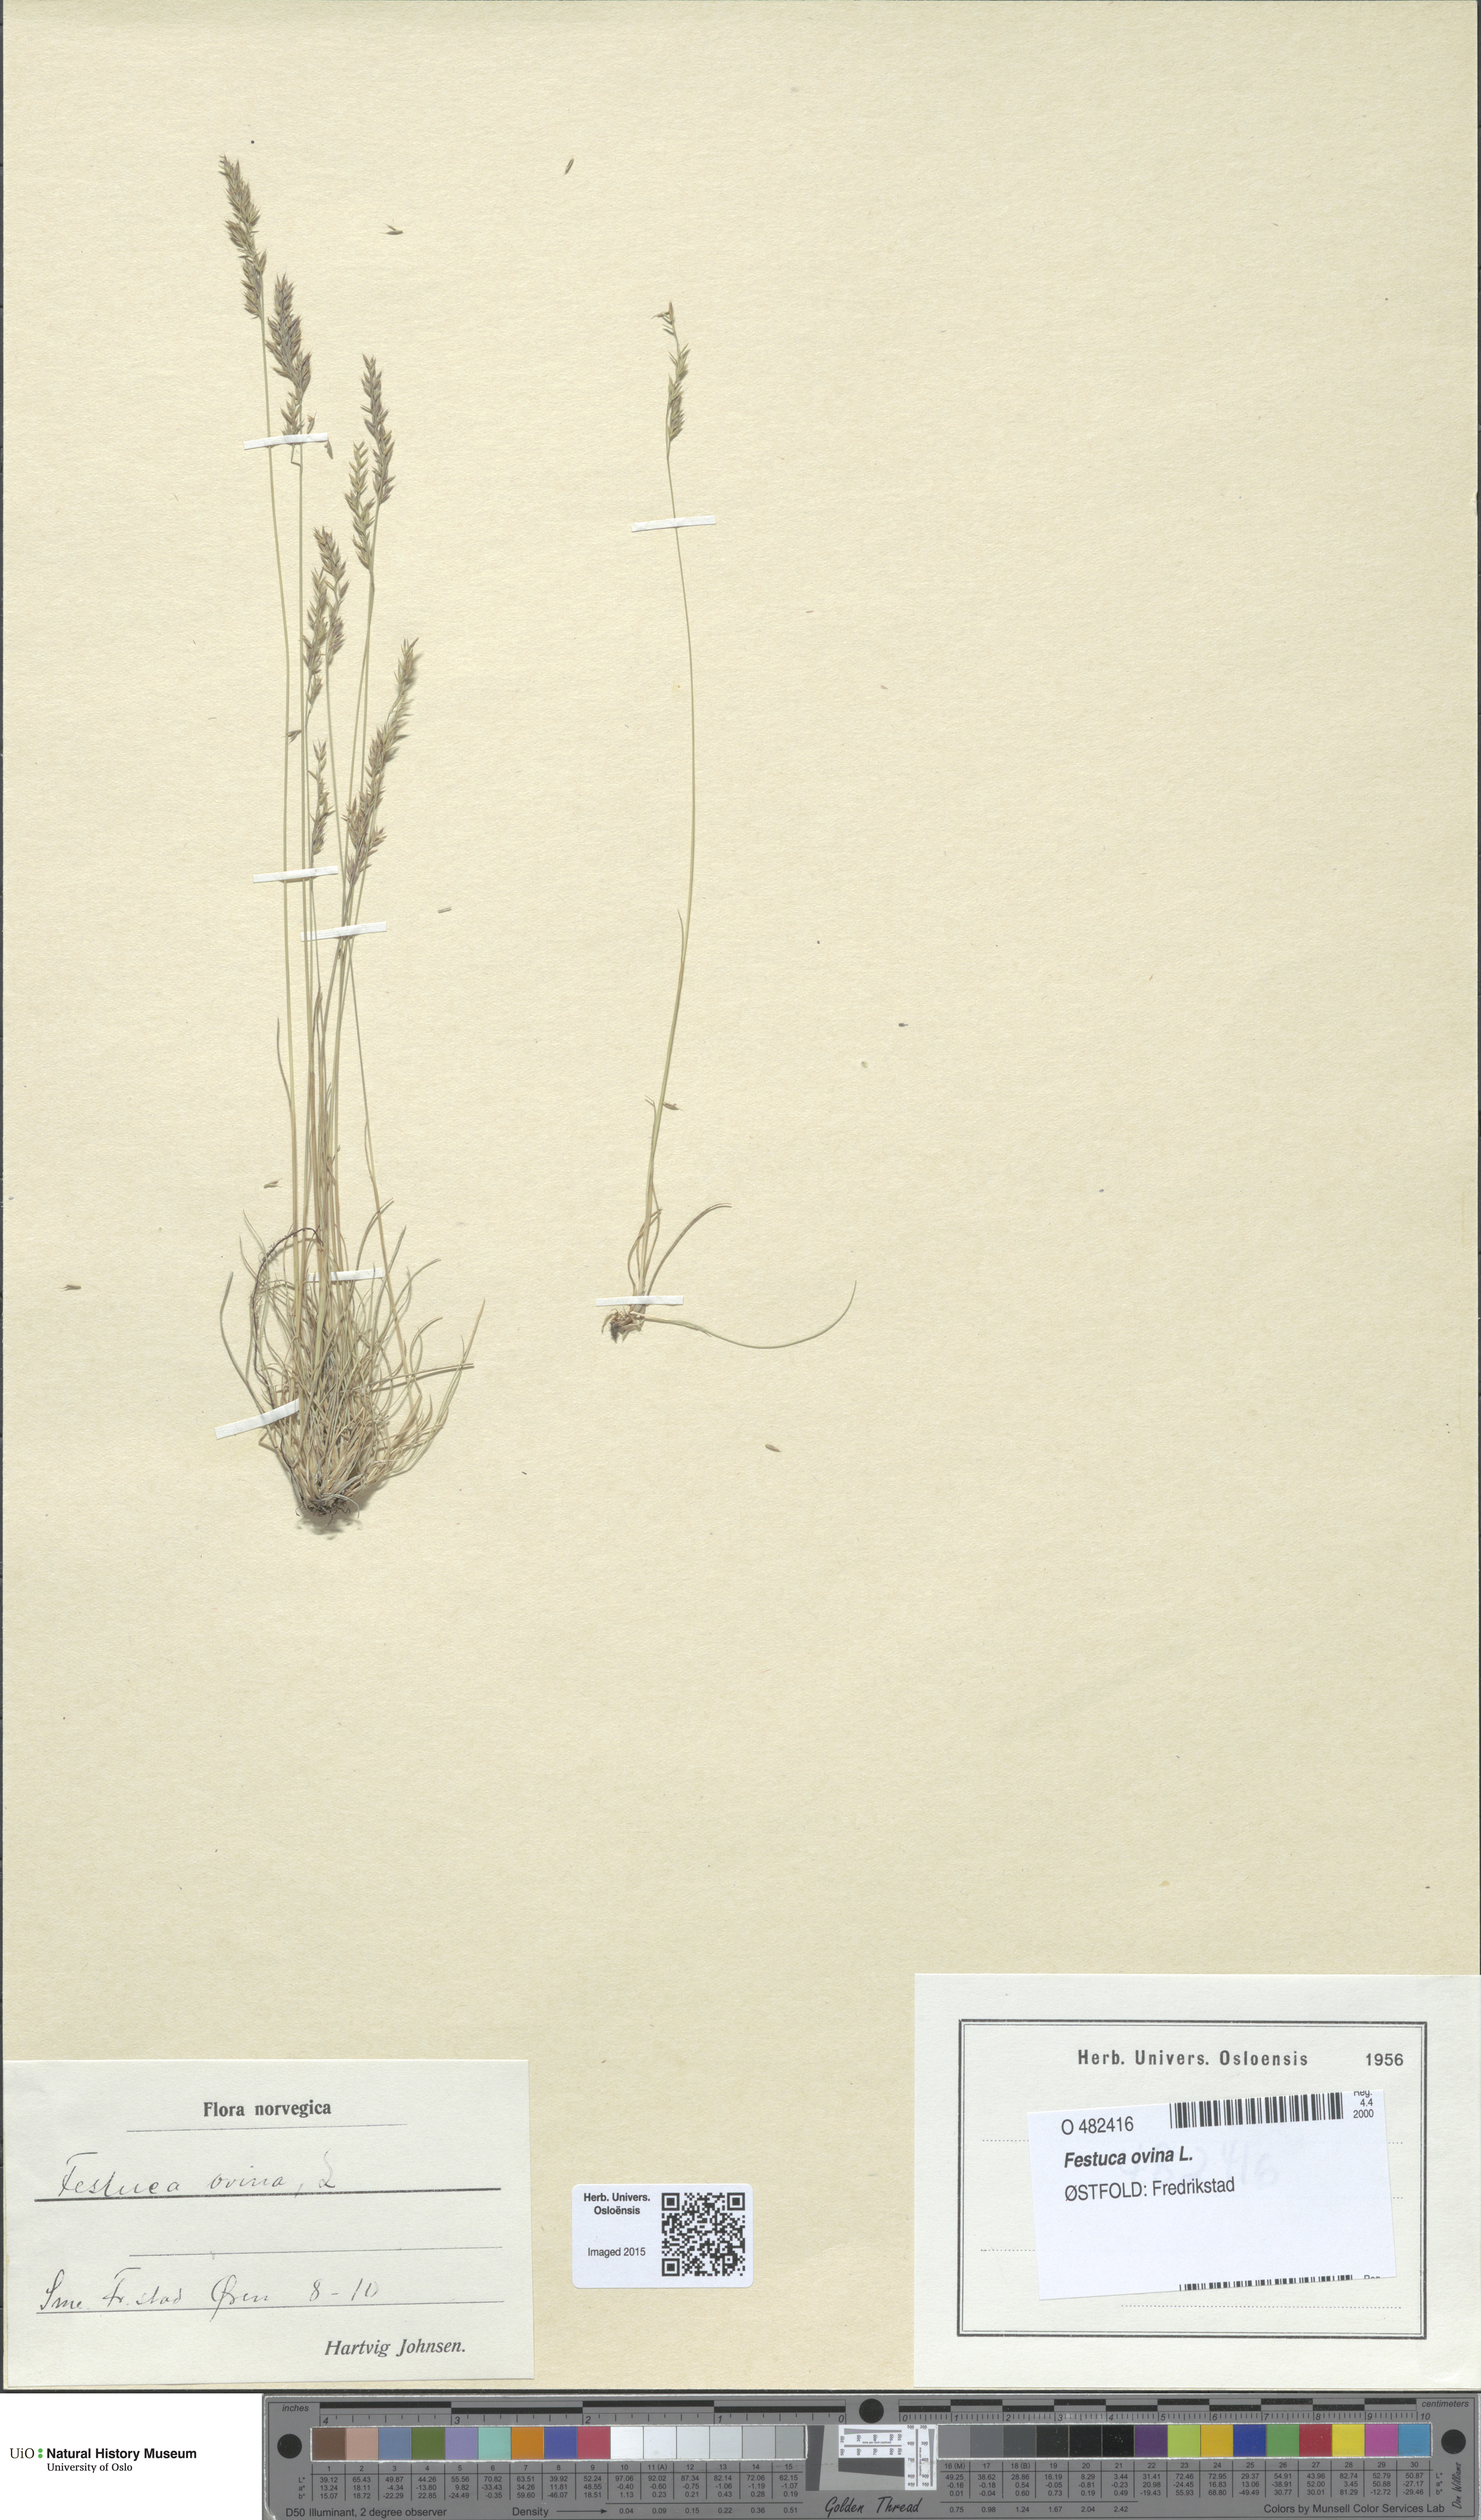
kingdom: Plantae
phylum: Tracheophyta
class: Liliopsida
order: Poales
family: Poaceae
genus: Festuca
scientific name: Festuca ovina
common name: Sheep fescue
